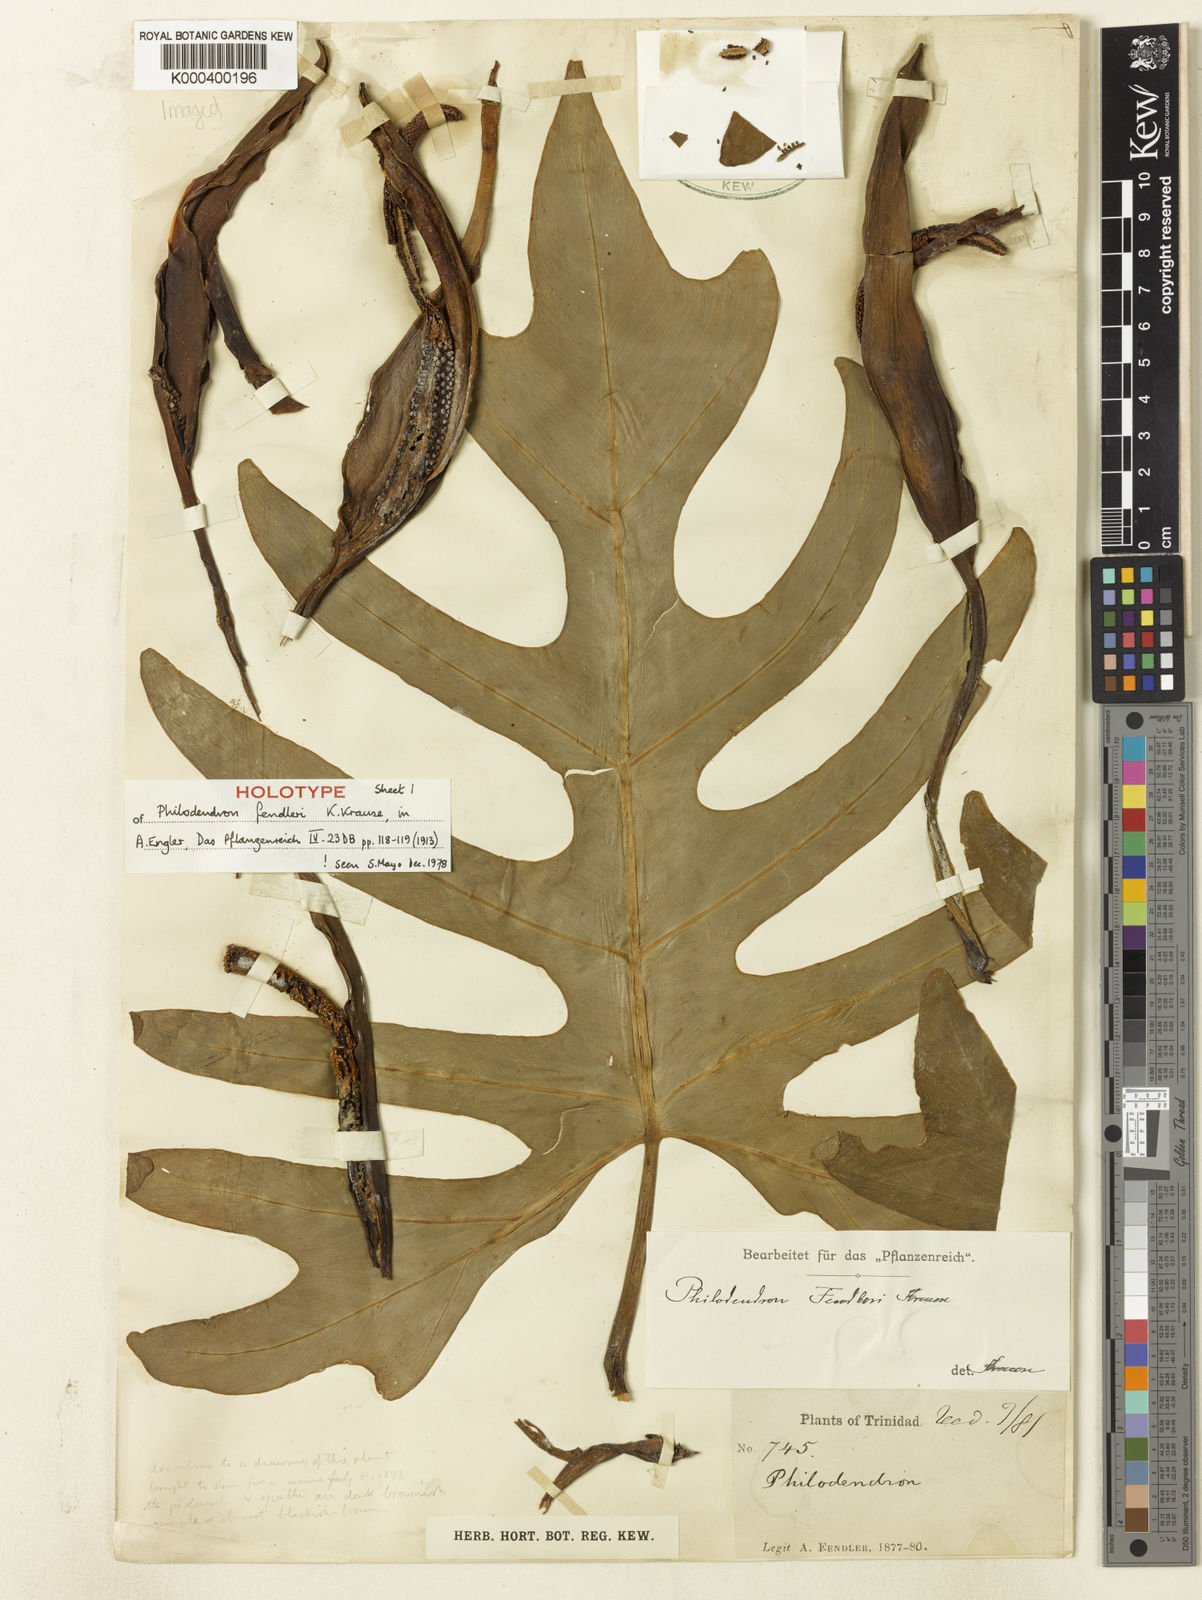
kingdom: Plantae
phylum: Tracheophyta
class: Liliopsida
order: Alismatales
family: Araceae
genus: Philodendron
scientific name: Philodendron fendleri
